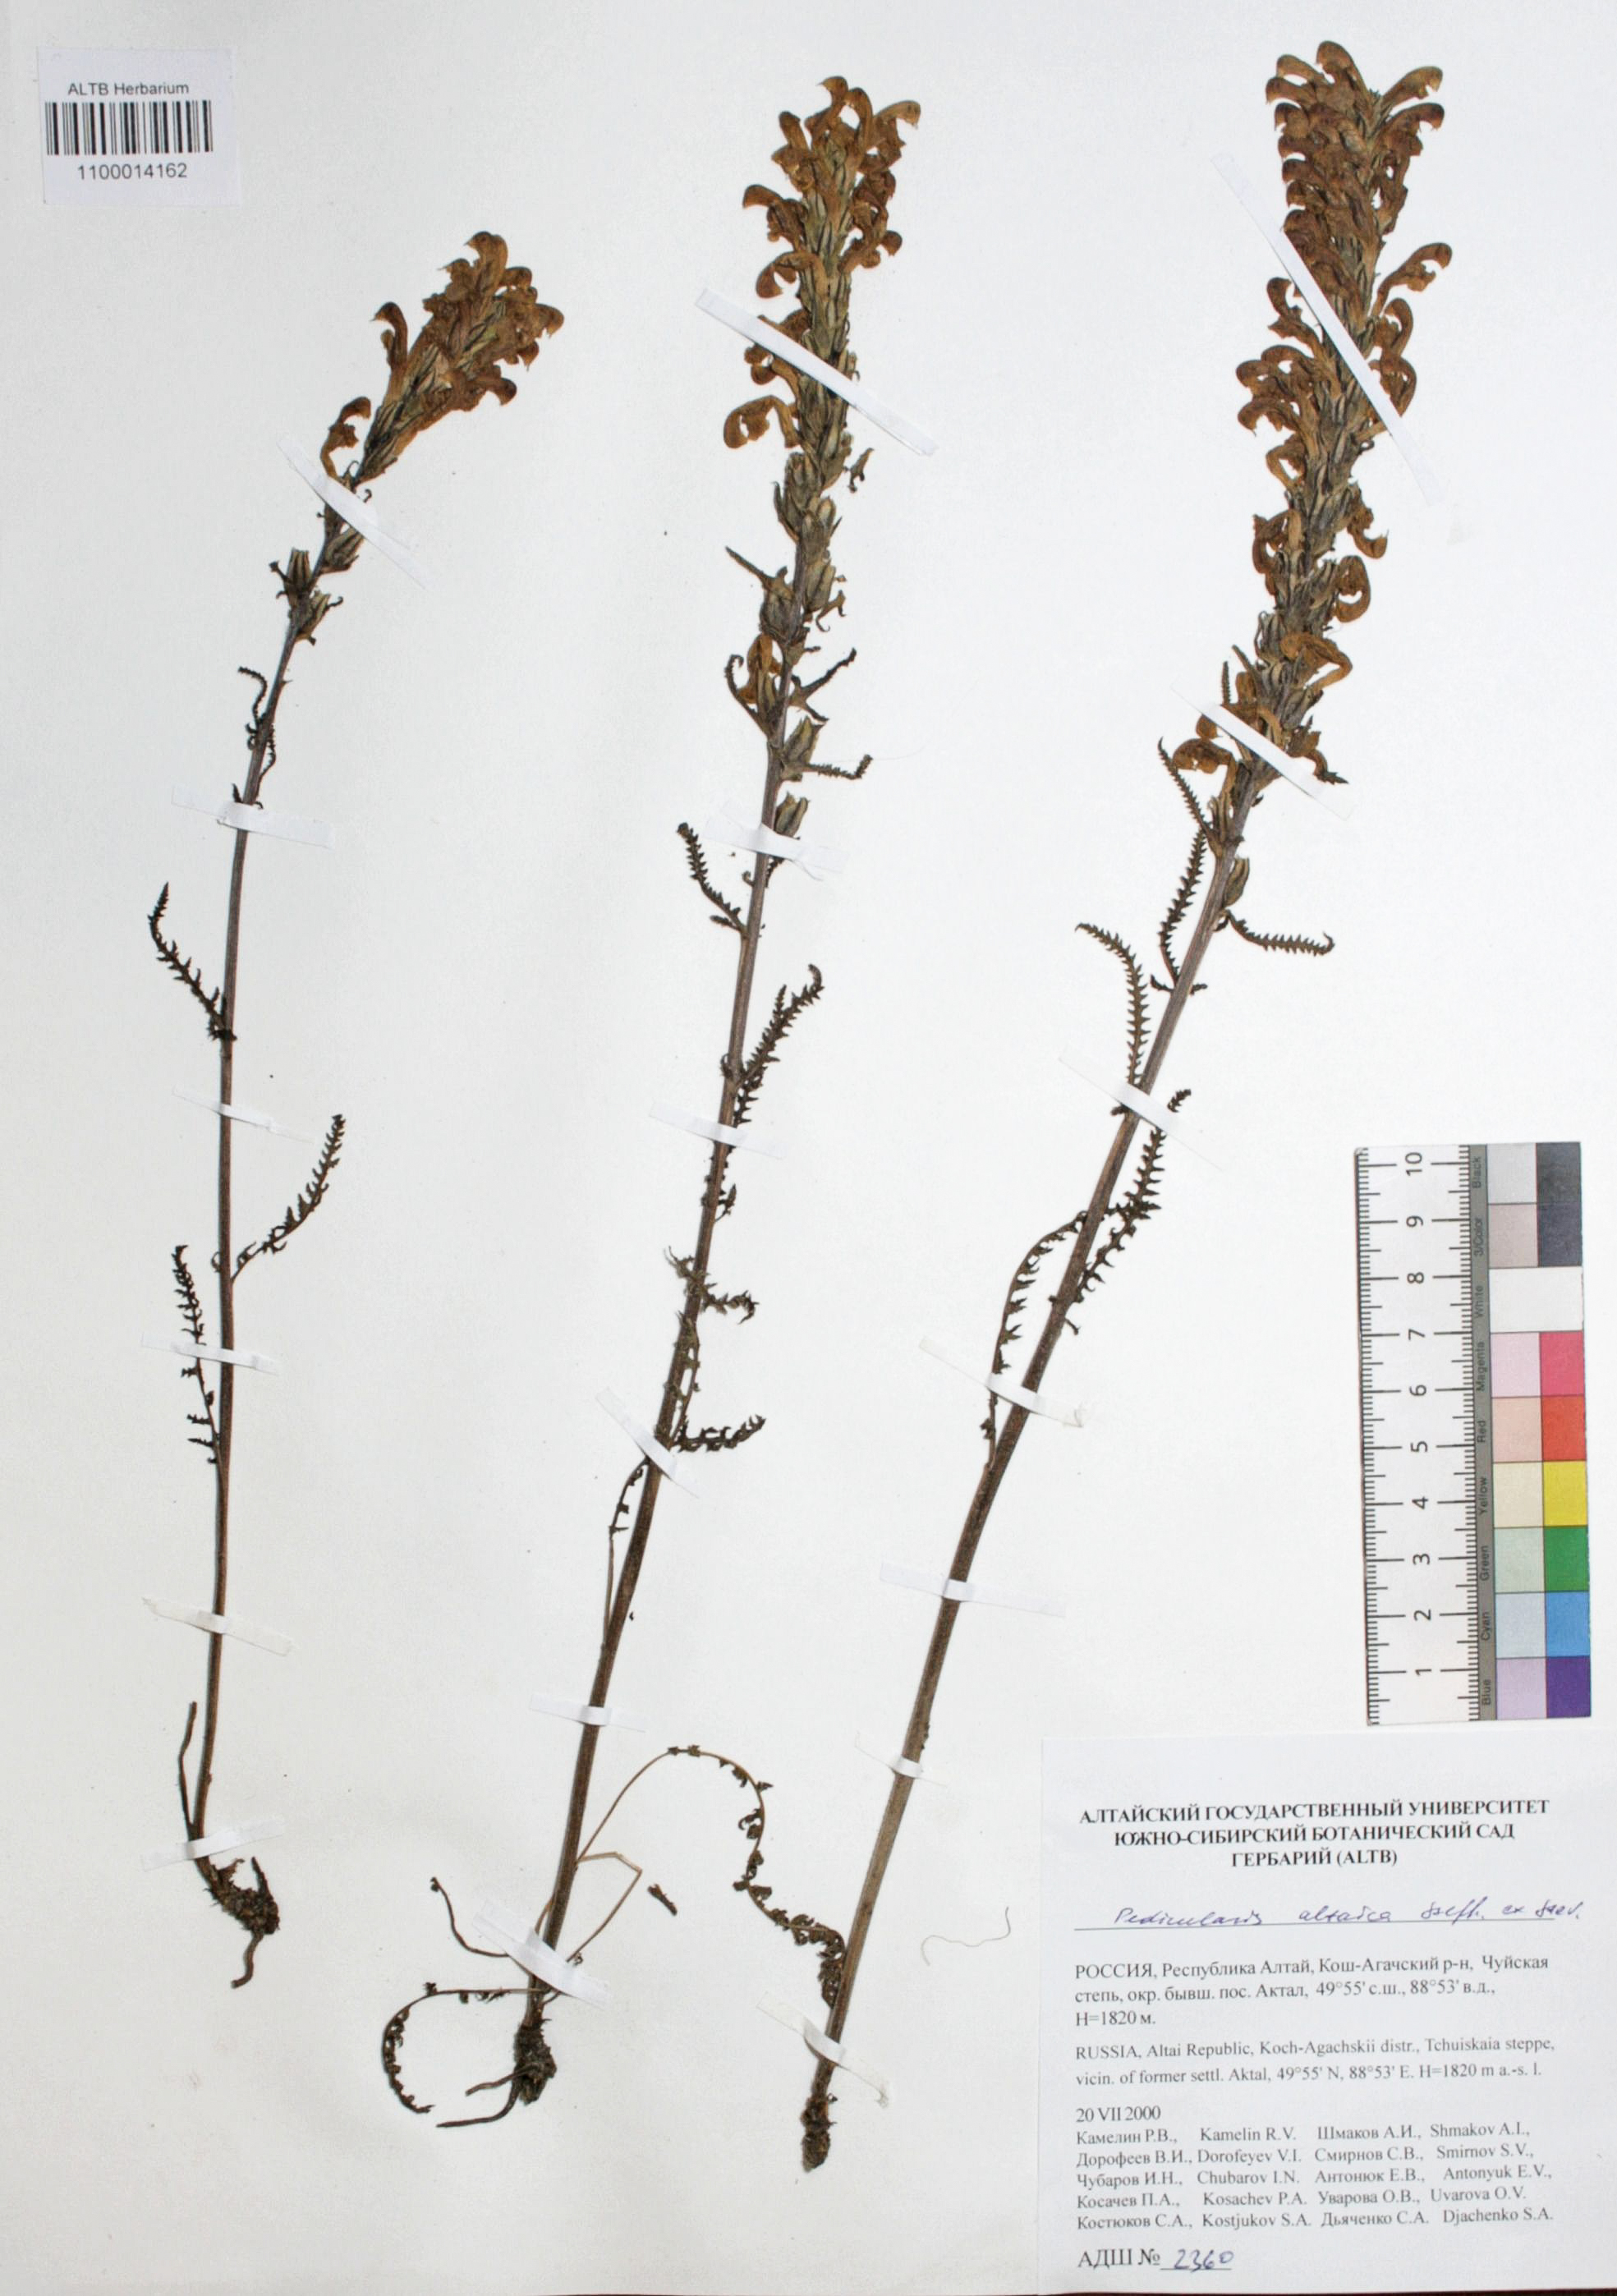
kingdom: Plantae
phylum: Tracheophyta
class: Magnoliopsida
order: Lamiales
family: Orobanchaceae
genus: Pedicularis
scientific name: Pedicularis altaica
